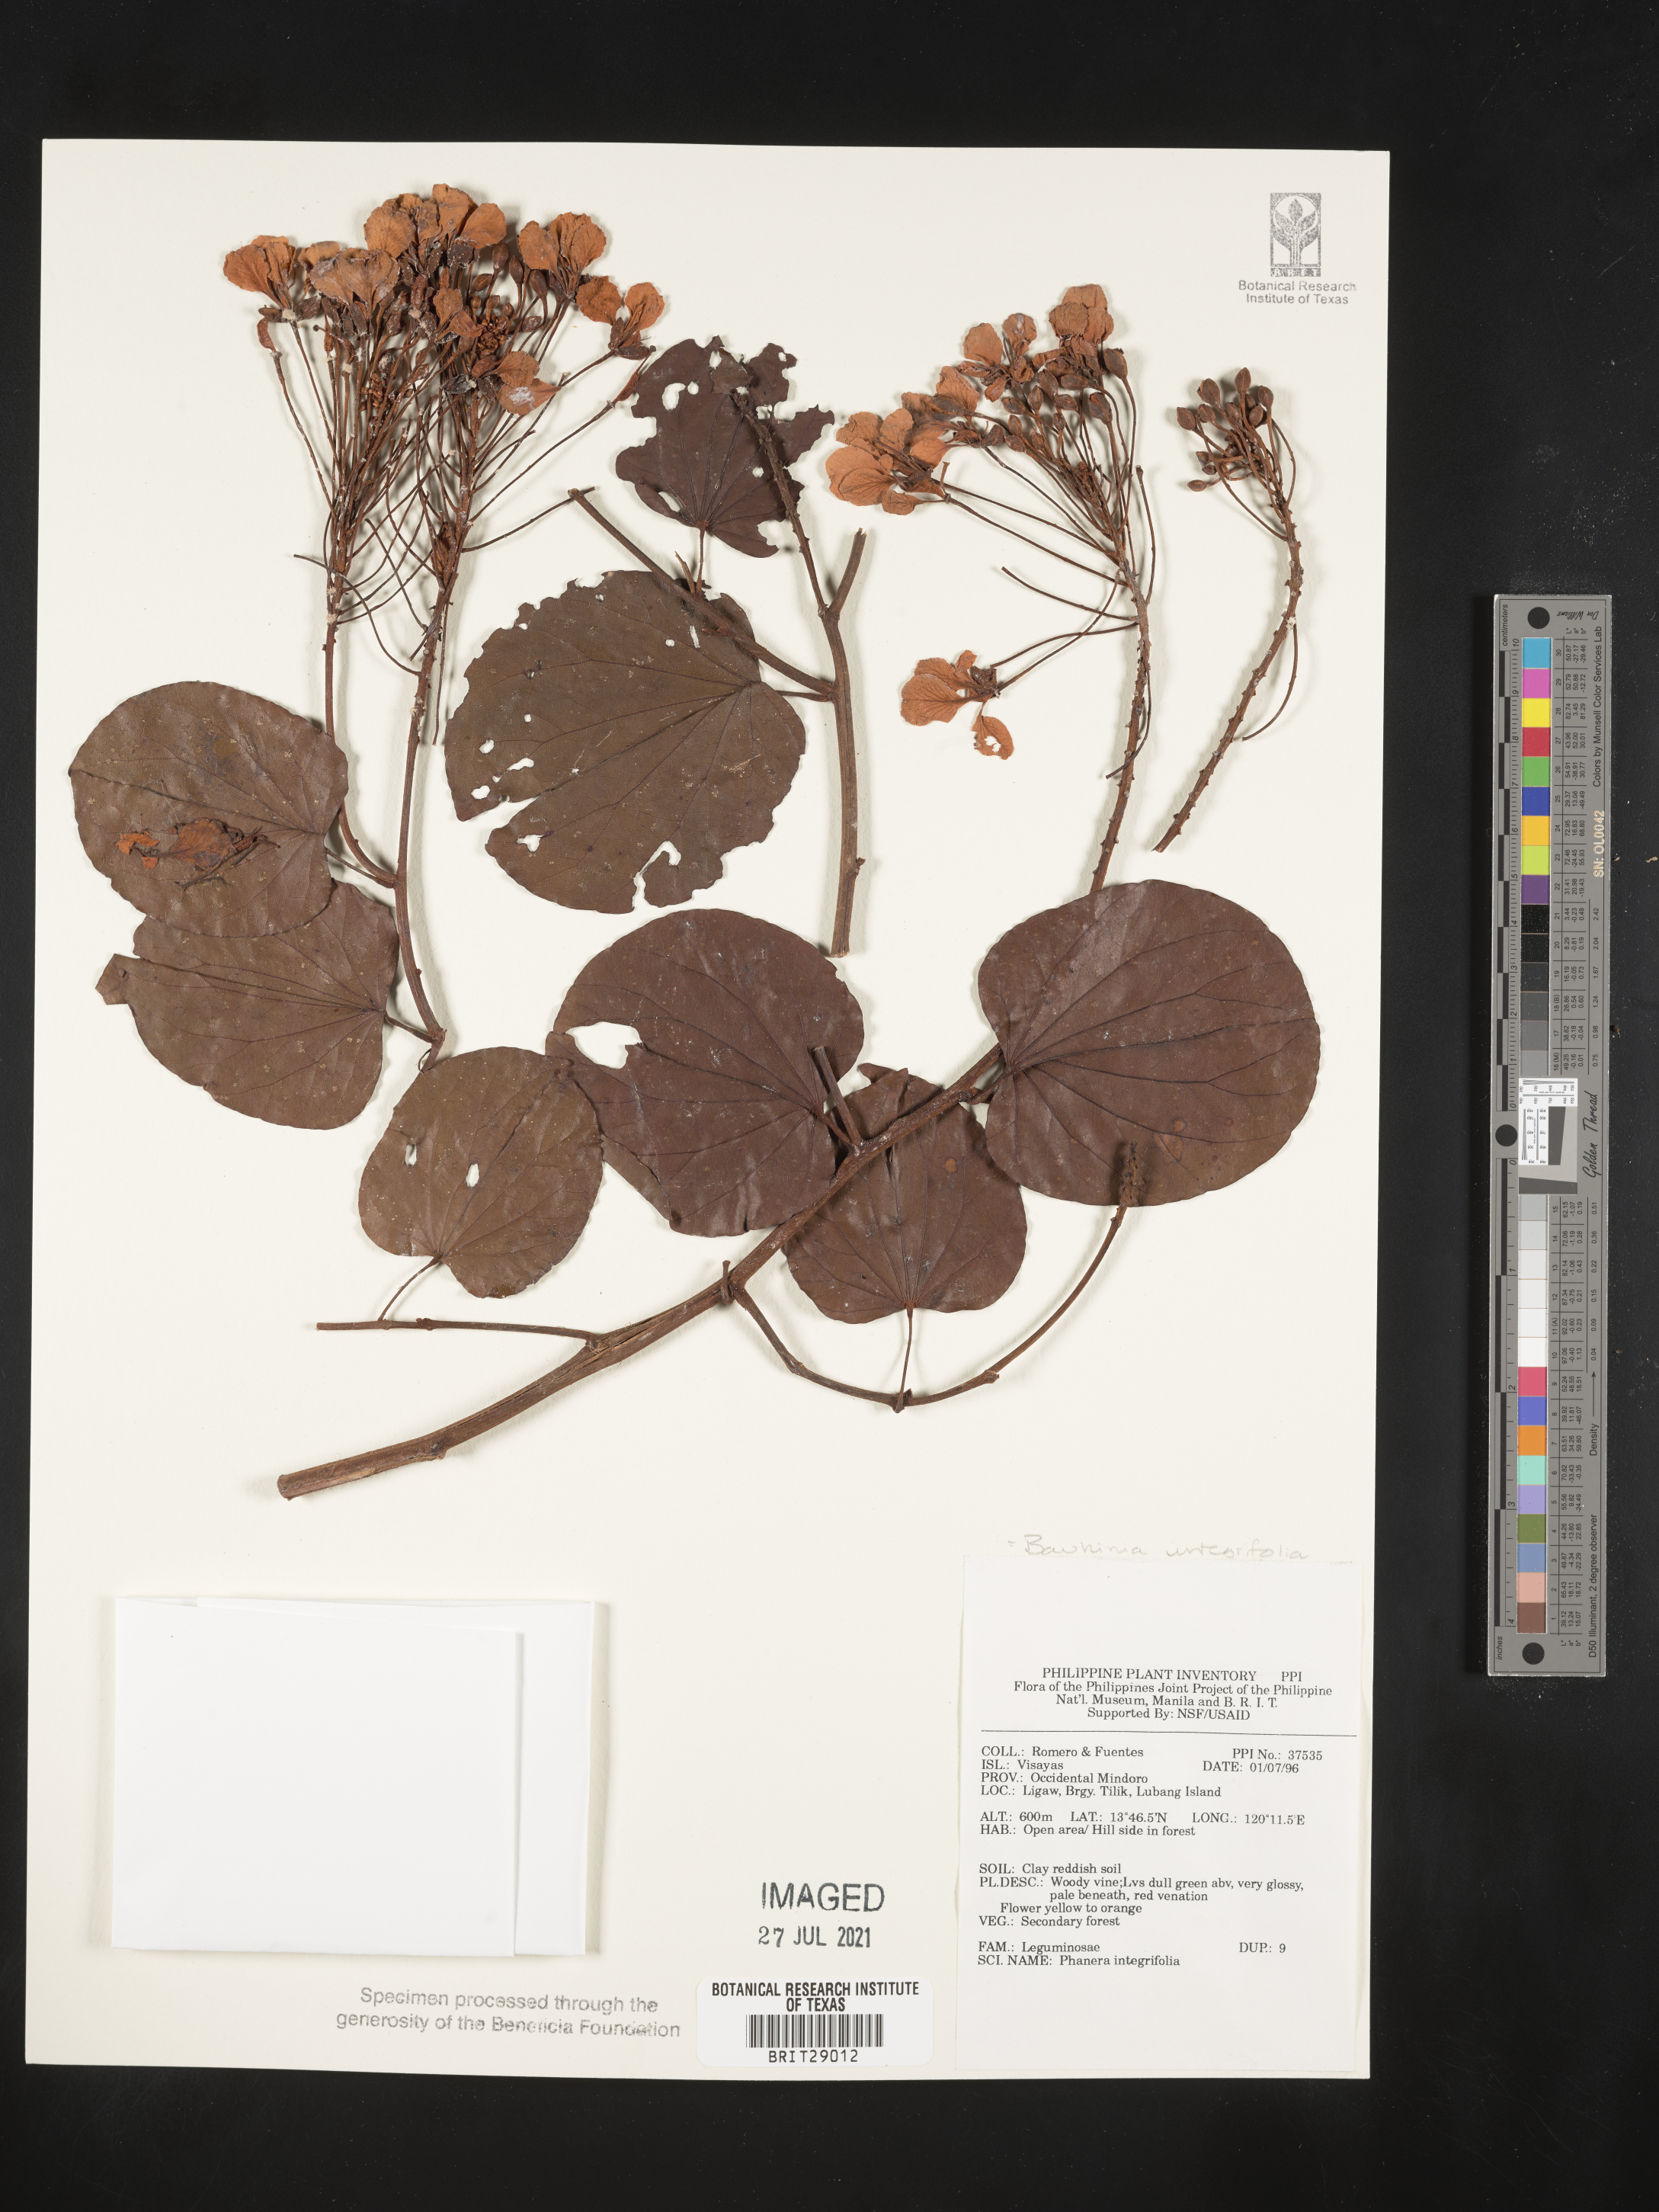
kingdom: Plantae
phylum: Tracheophyta
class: Magnoliopsida
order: Fabales
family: Fabaceae
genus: Phanera
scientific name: Phanera integrifolia
